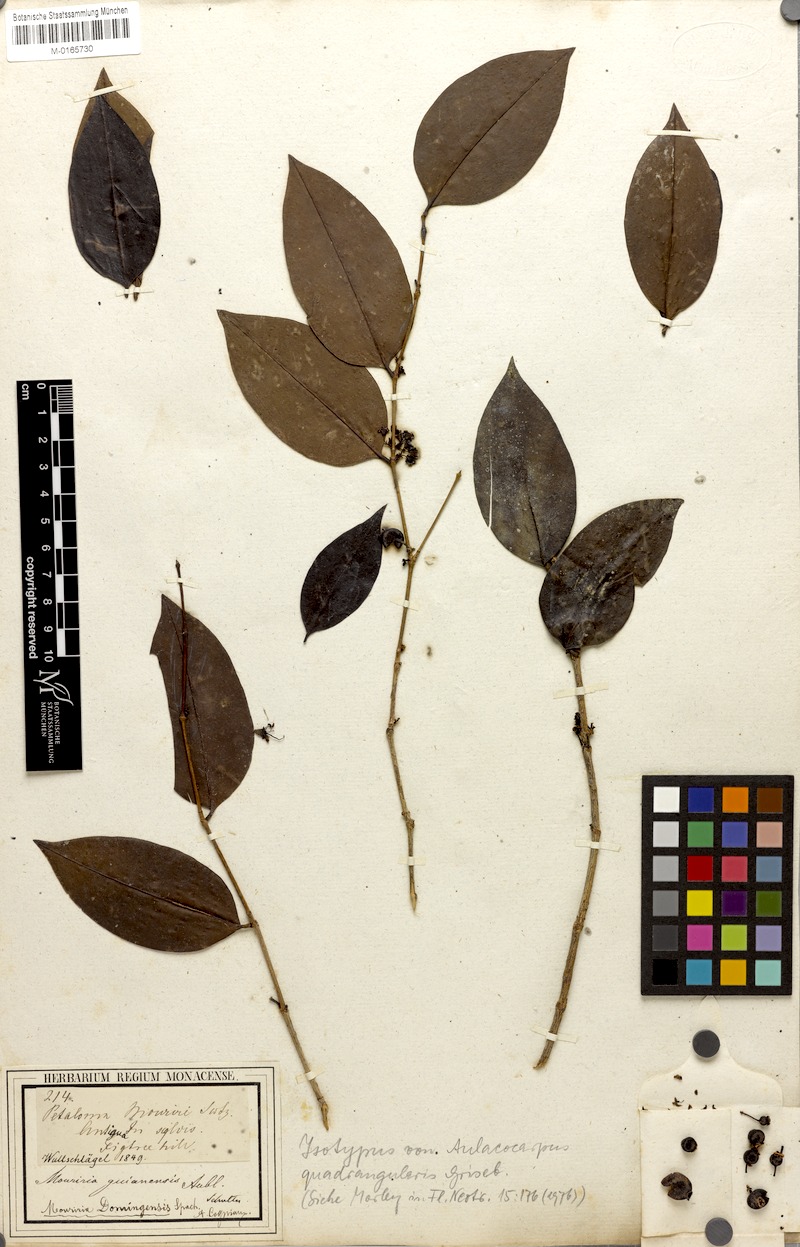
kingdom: Plantae
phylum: Tracheophyta
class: Magnoliopsida
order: Myrtales
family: Melastomataceae
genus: Mouriri
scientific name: Mouriri domingensis
